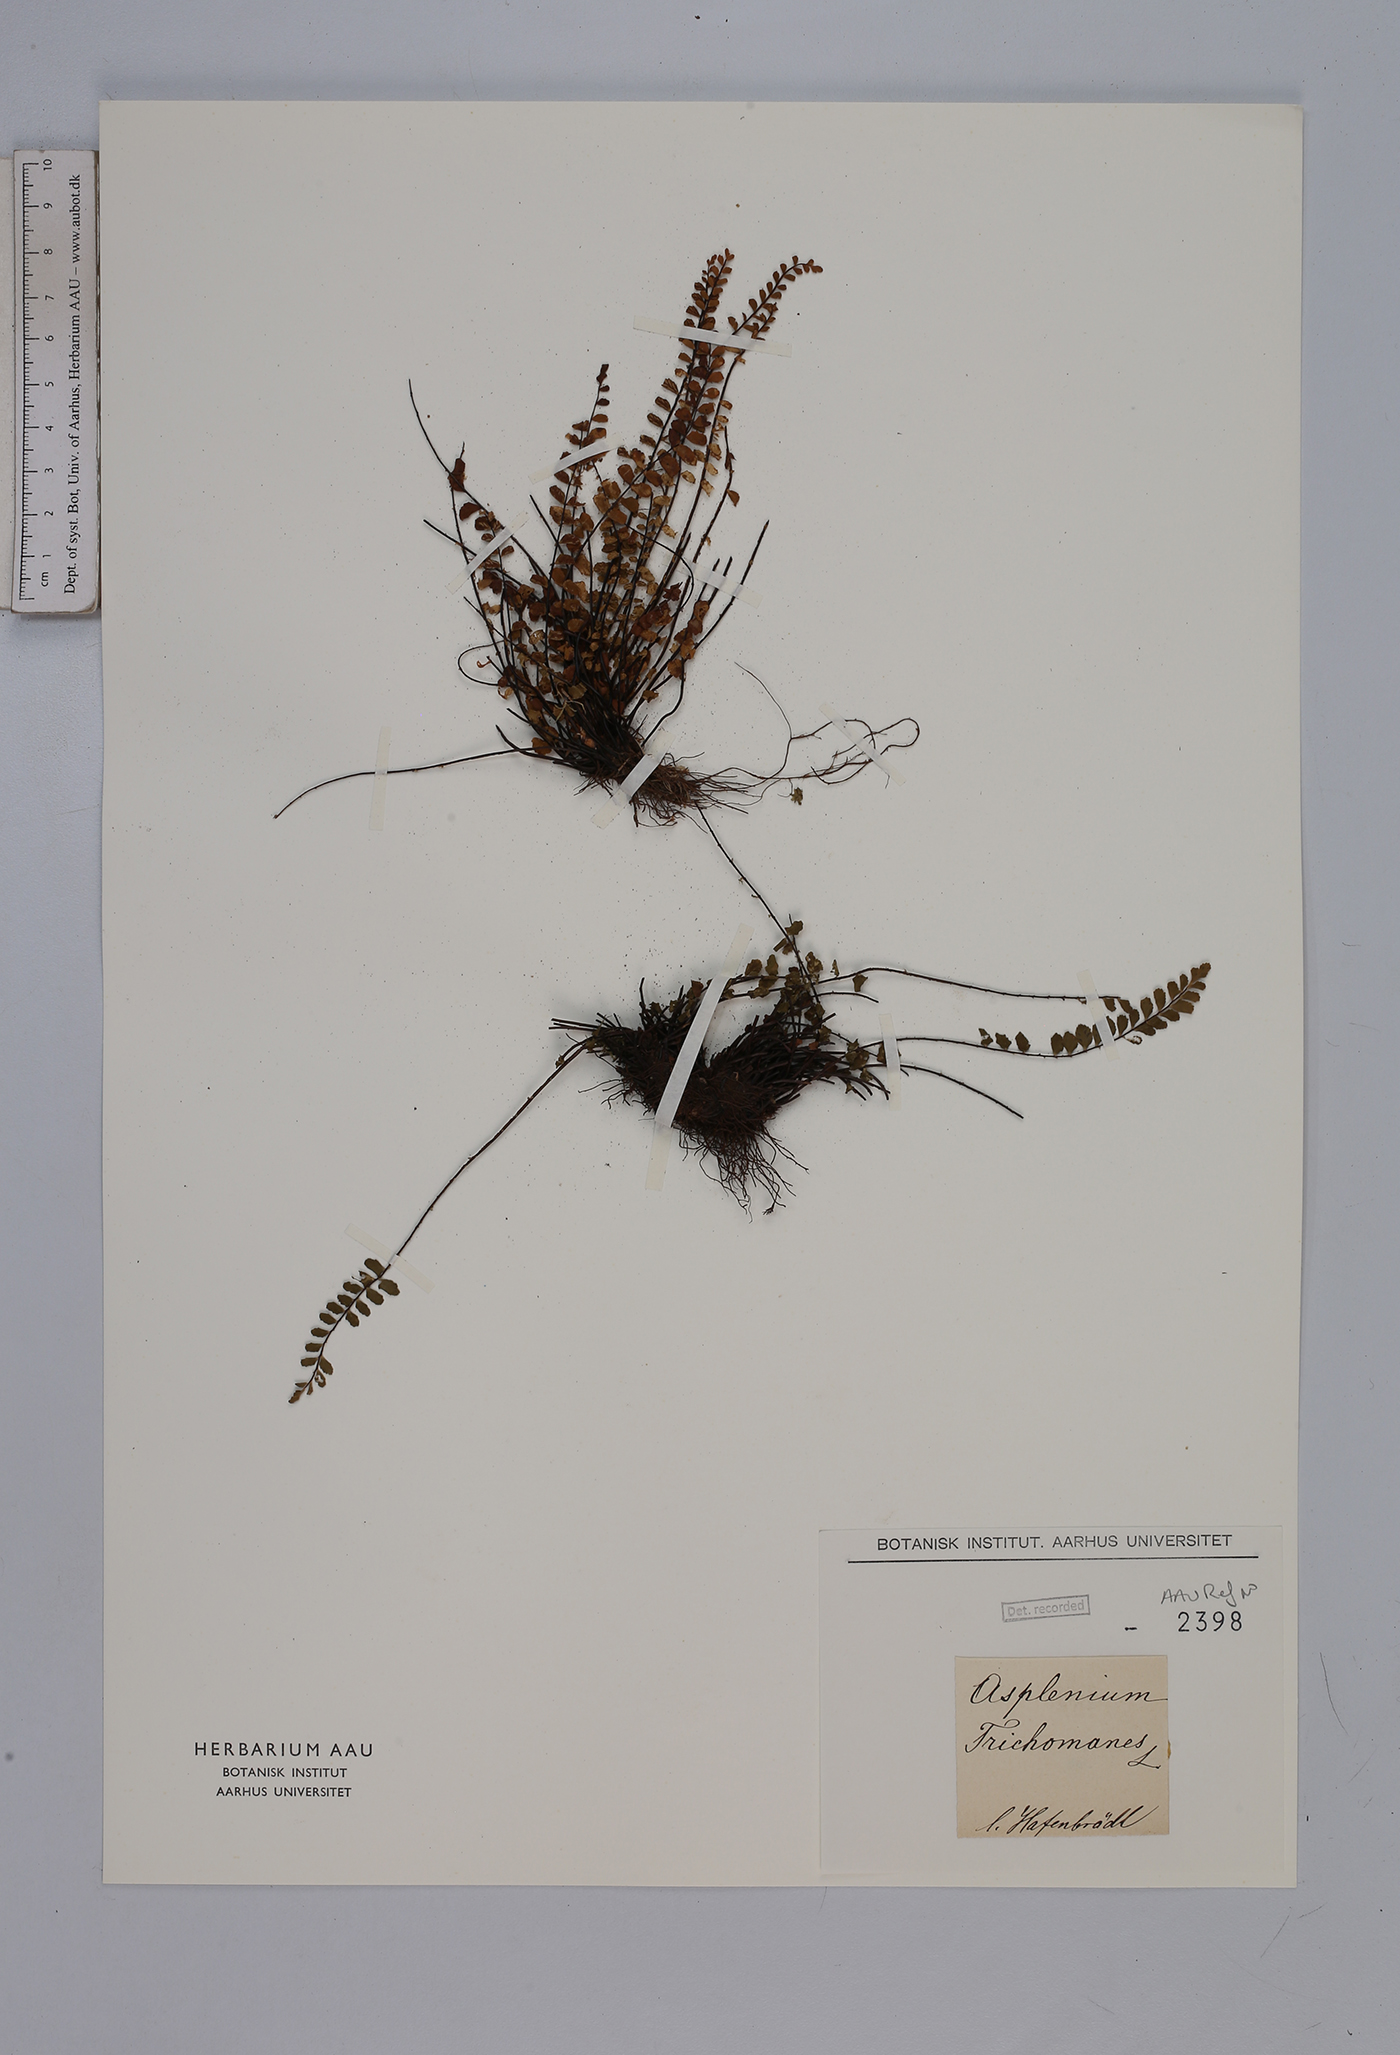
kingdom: Plantae
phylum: Tracheophyta
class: Polypodiopsida
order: Polypodiales
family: Aspleniaceae
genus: Asplenium
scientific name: Asplenium trichomanes
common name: Maidenhair spleenwort
